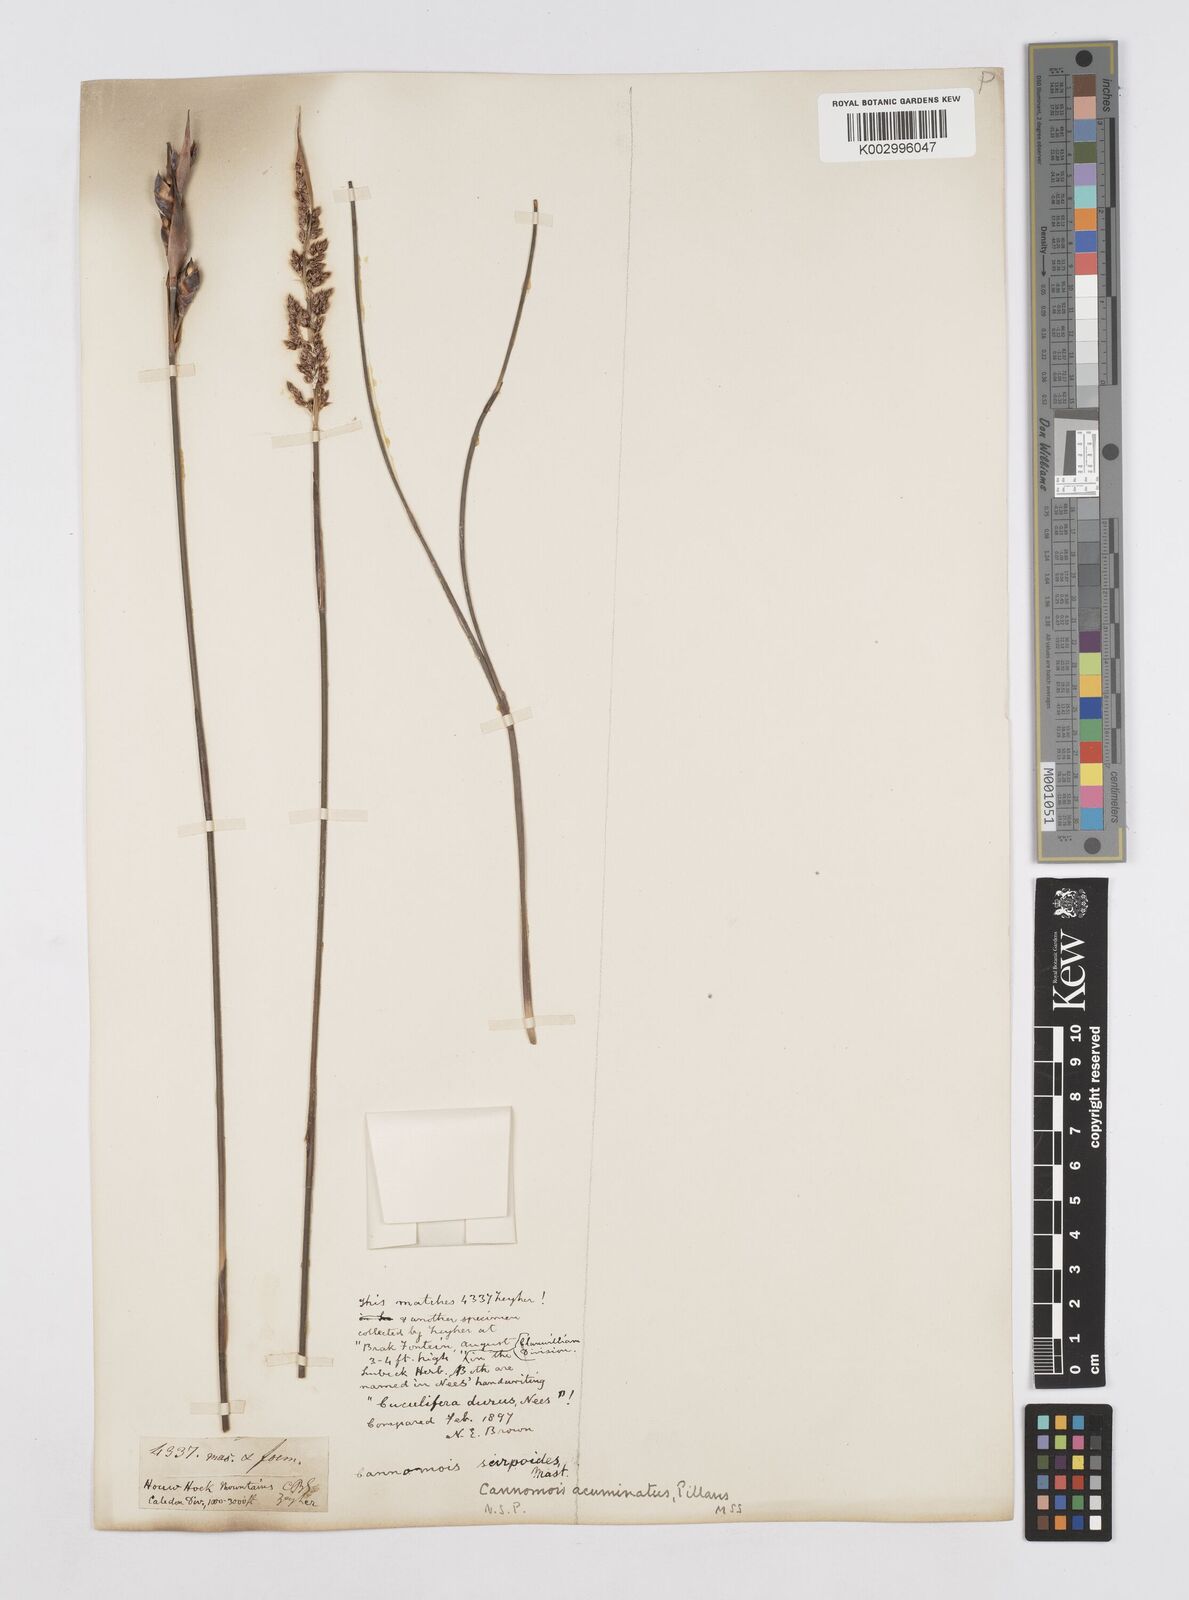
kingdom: Plantae
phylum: Tracheophyta
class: Liliopsida
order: Poales
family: Restionaceae
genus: Cannomois
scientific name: Cannomois parviflora
